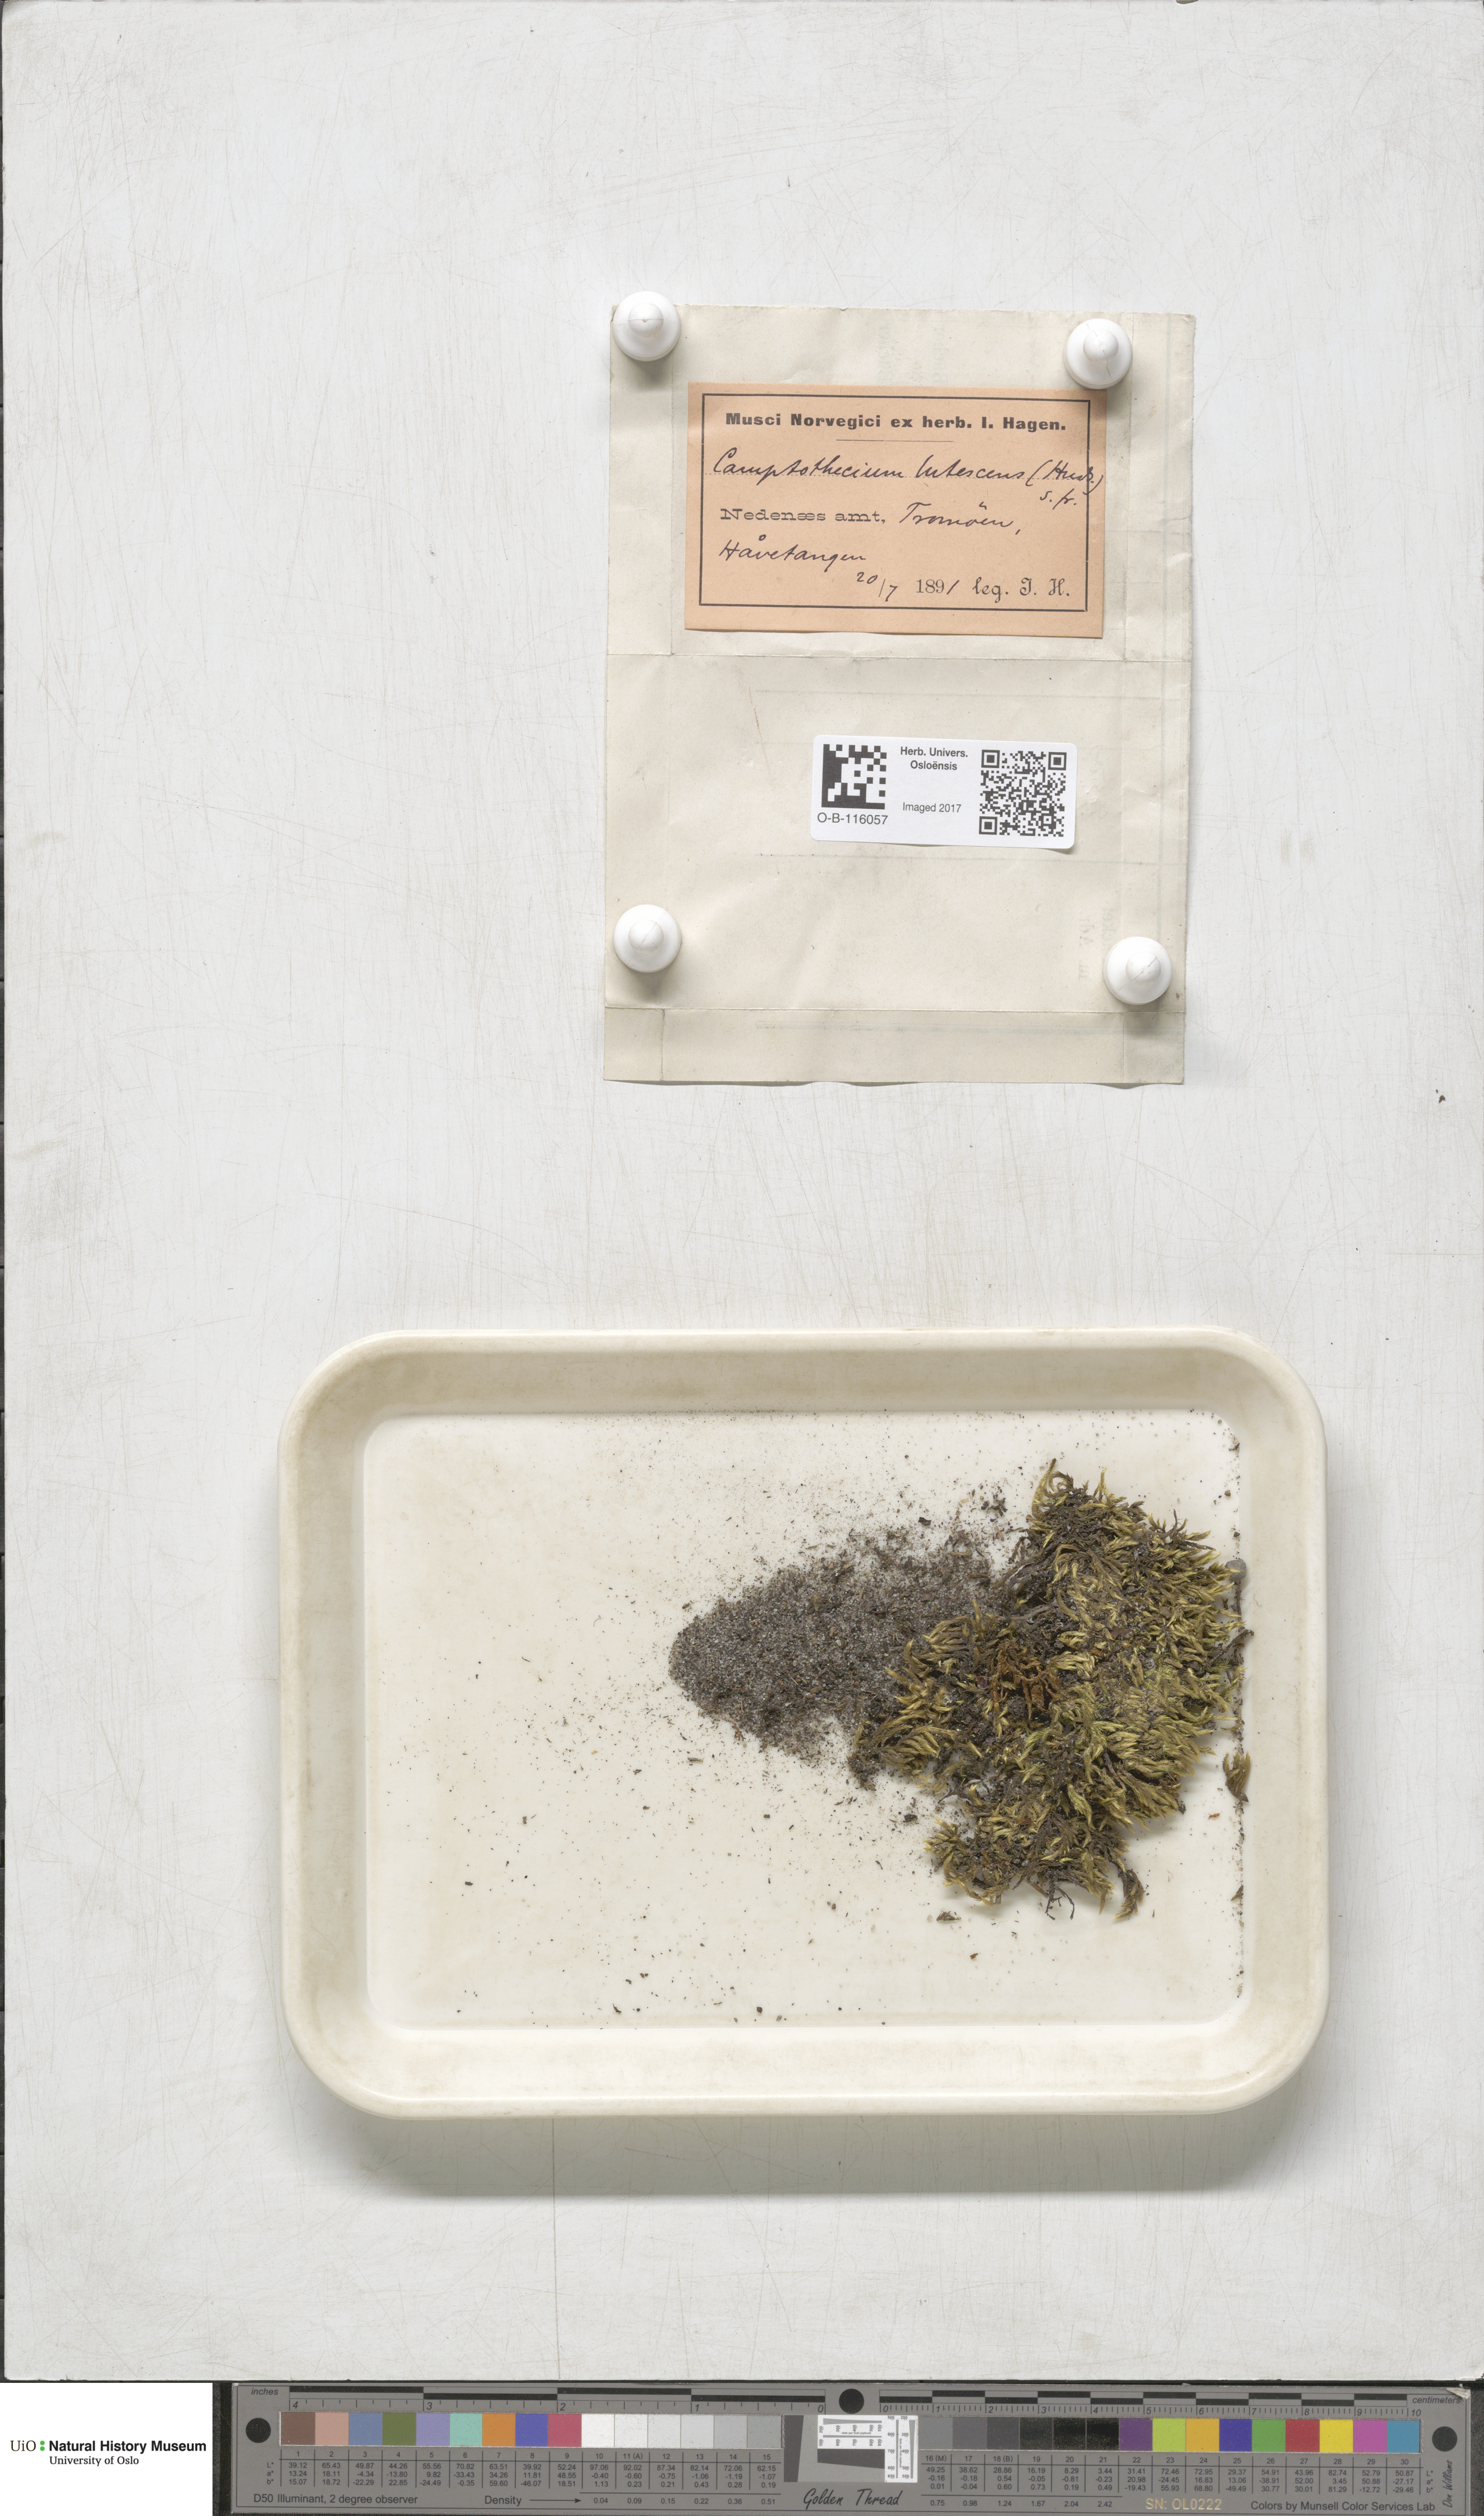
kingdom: Plantae
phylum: Bryophyta
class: Bryopsida
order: Hypnales
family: Brachytheciaceae
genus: Homalothecium
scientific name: Homalothecium lutescens
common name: Yellow feather-moss
